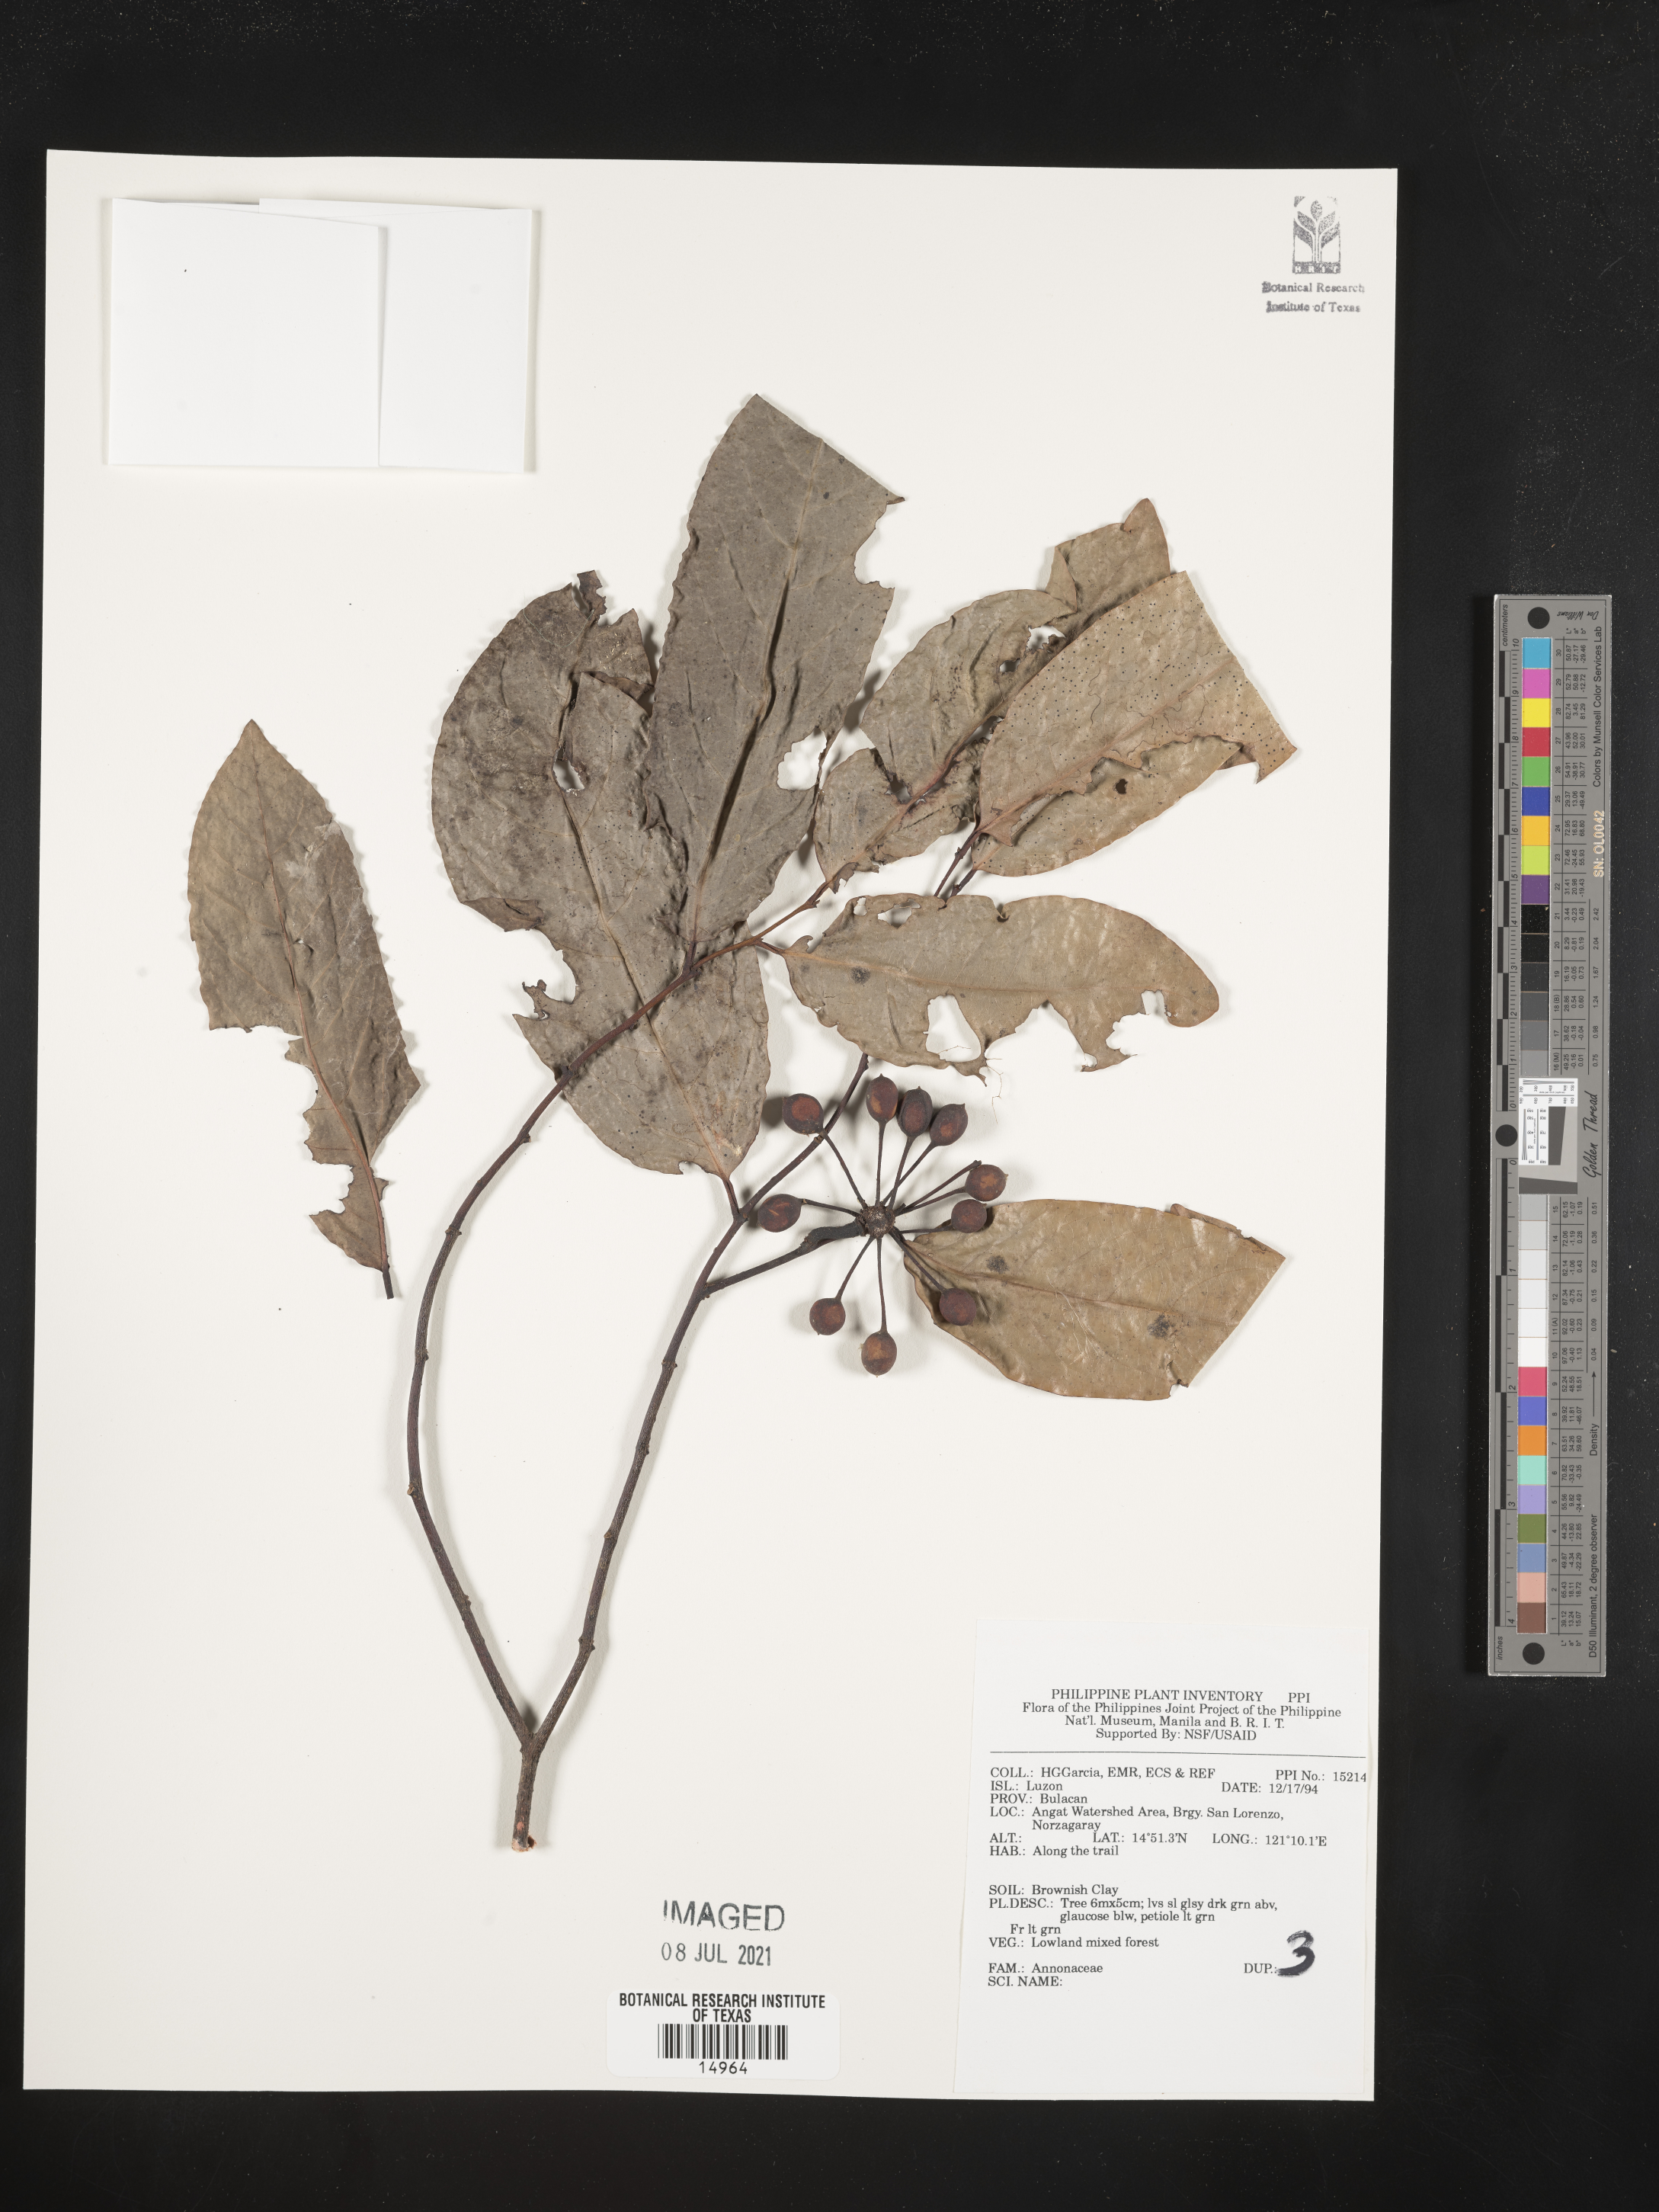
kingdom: Plantae
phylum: Tracheophyta
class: Magnoliopsida
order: Magnoliales
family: Annonaceae
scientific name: Annonaceae
